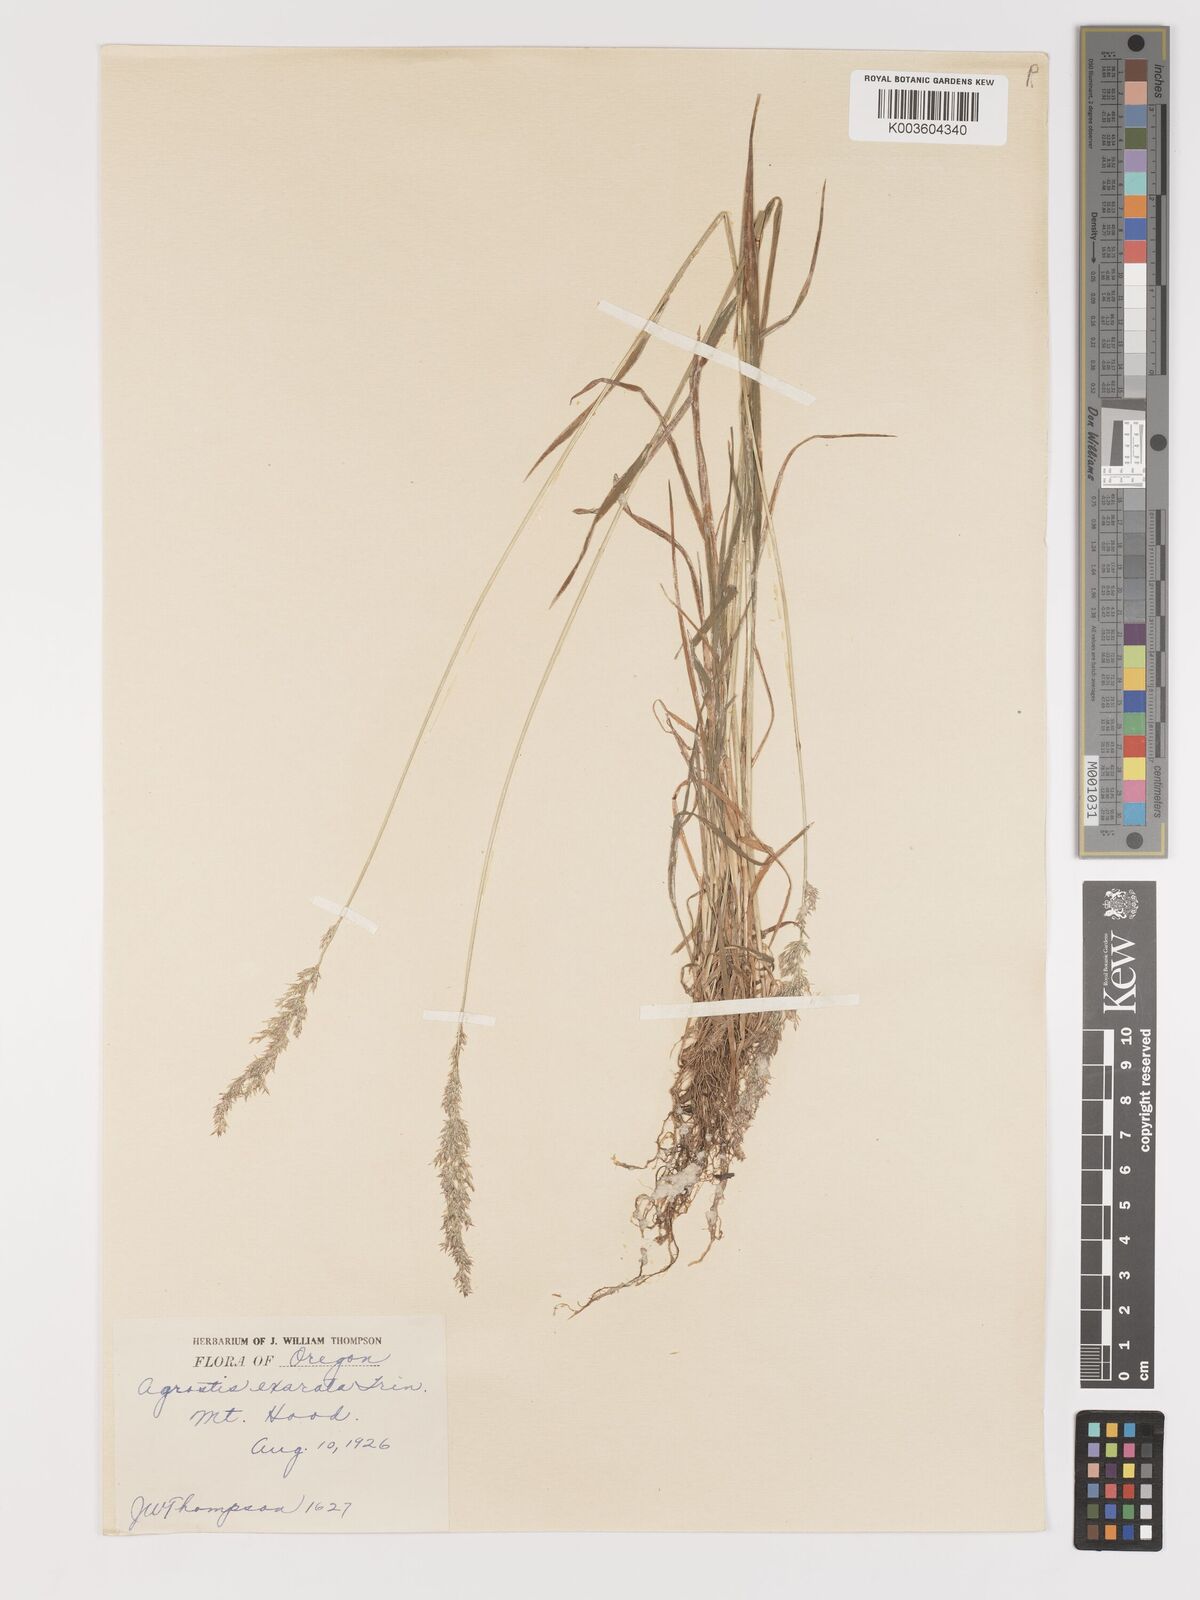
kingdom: Plantae
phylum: Tracheophyta
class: Liliopsida
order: Poales
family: Poaceae
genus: Agrostis
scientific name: Agrostis exarata
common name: Spike bent
